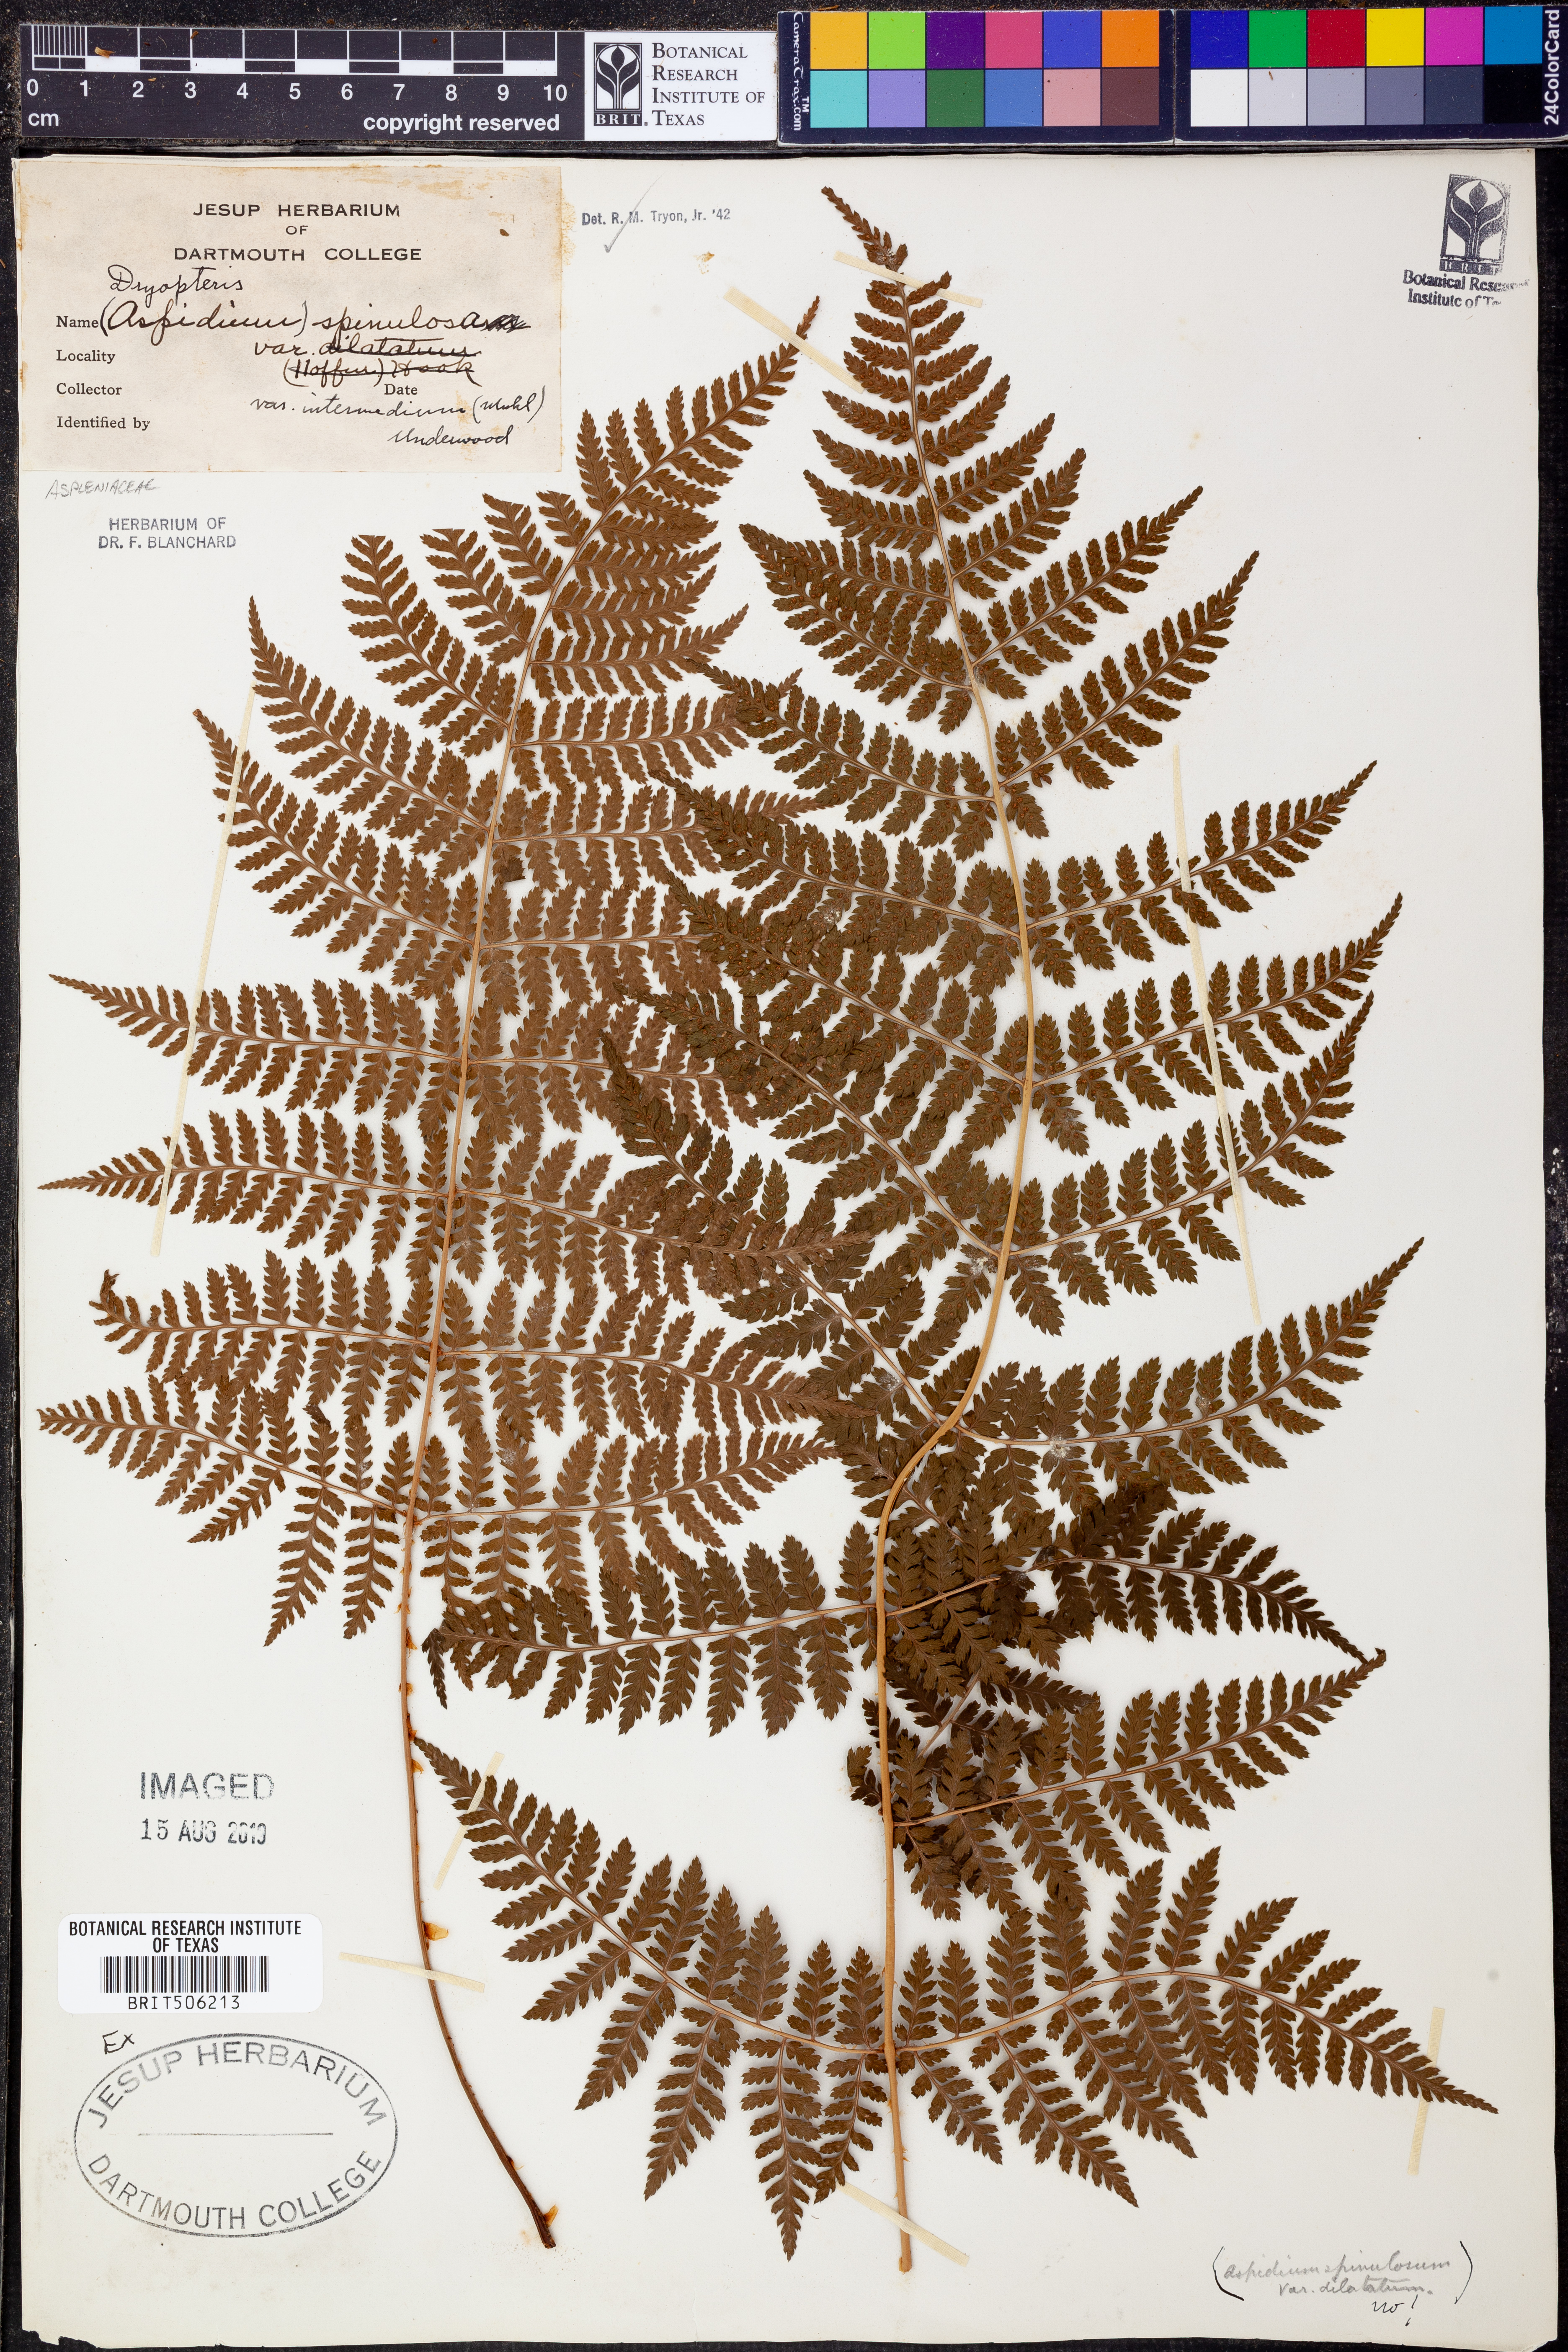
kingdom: Plantae
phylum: Tracheophyta
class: Polypodiopsida
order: Polypodiales
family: Dryopteridaceae
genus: Dryopteris
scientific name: Dryopteris intermedia
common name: Evergreen wood fern
